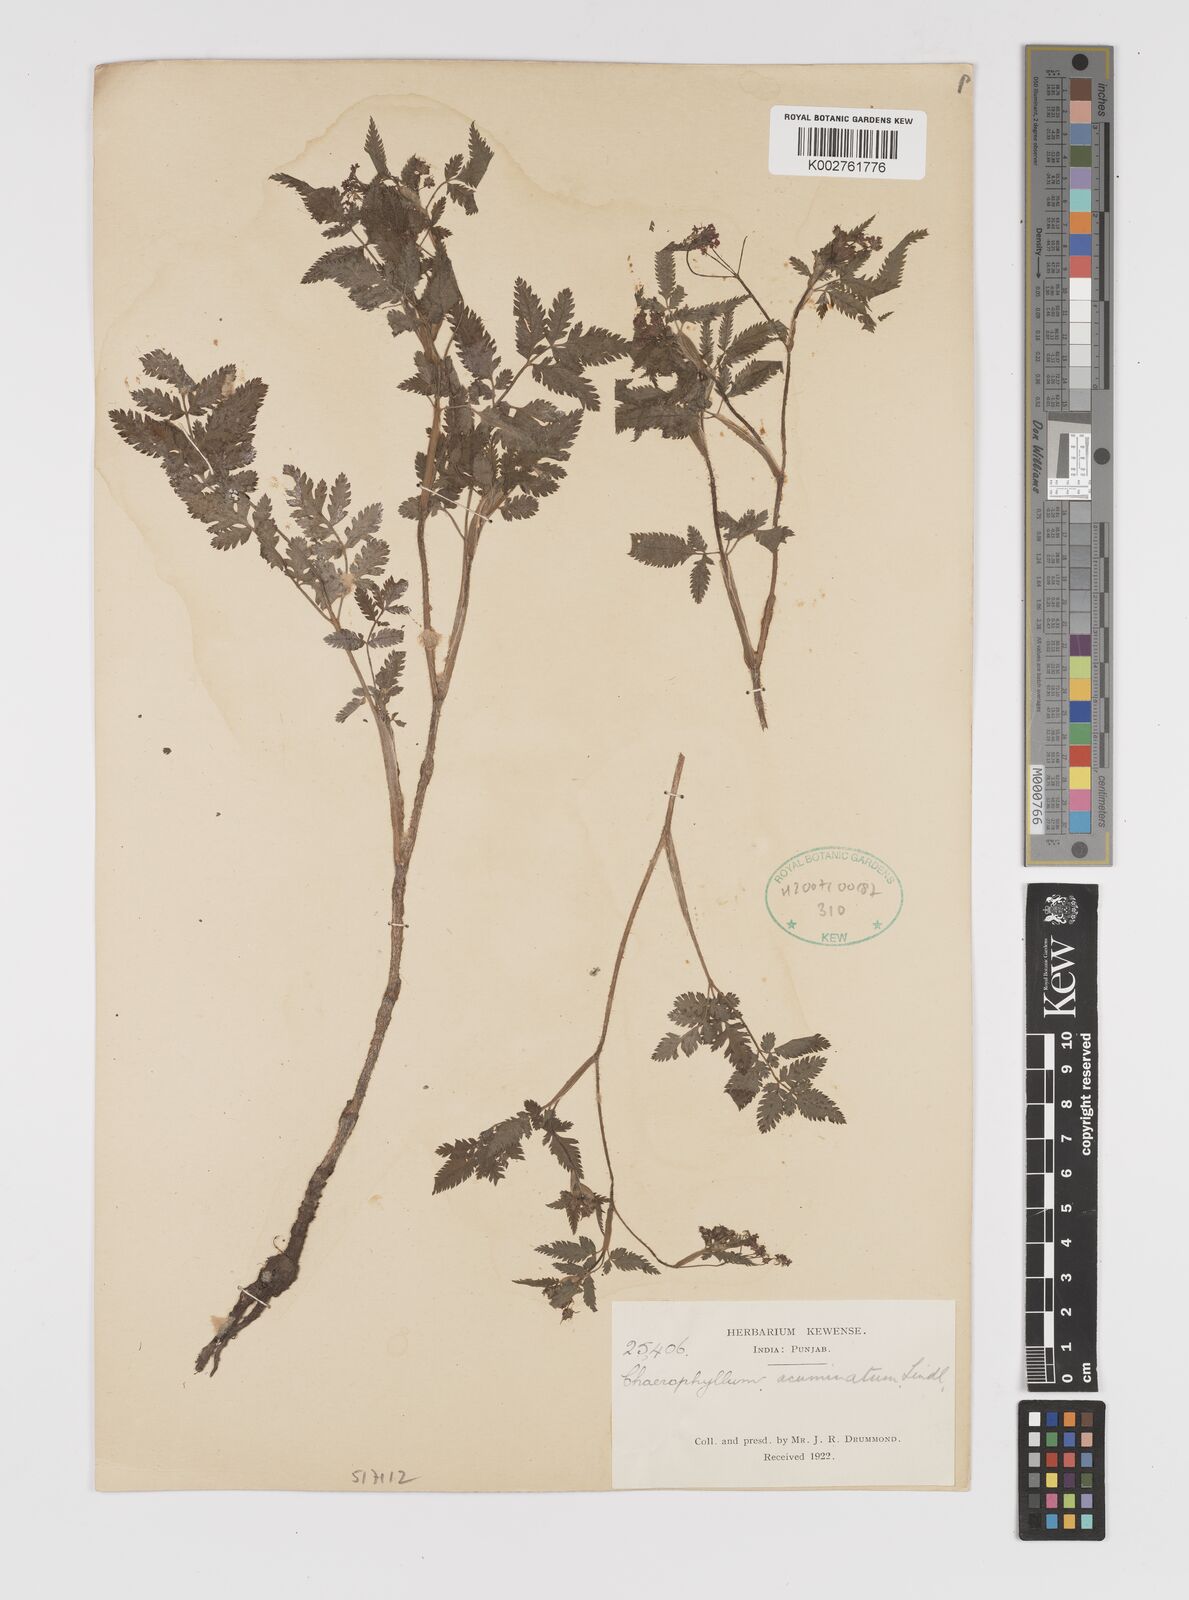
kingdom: Plantae
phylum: Tracheophyta
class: Magnoliopsida
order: Apiales
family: Apiaceae
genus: Chaerophyllum
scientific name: Chaerophyllum reflexum
